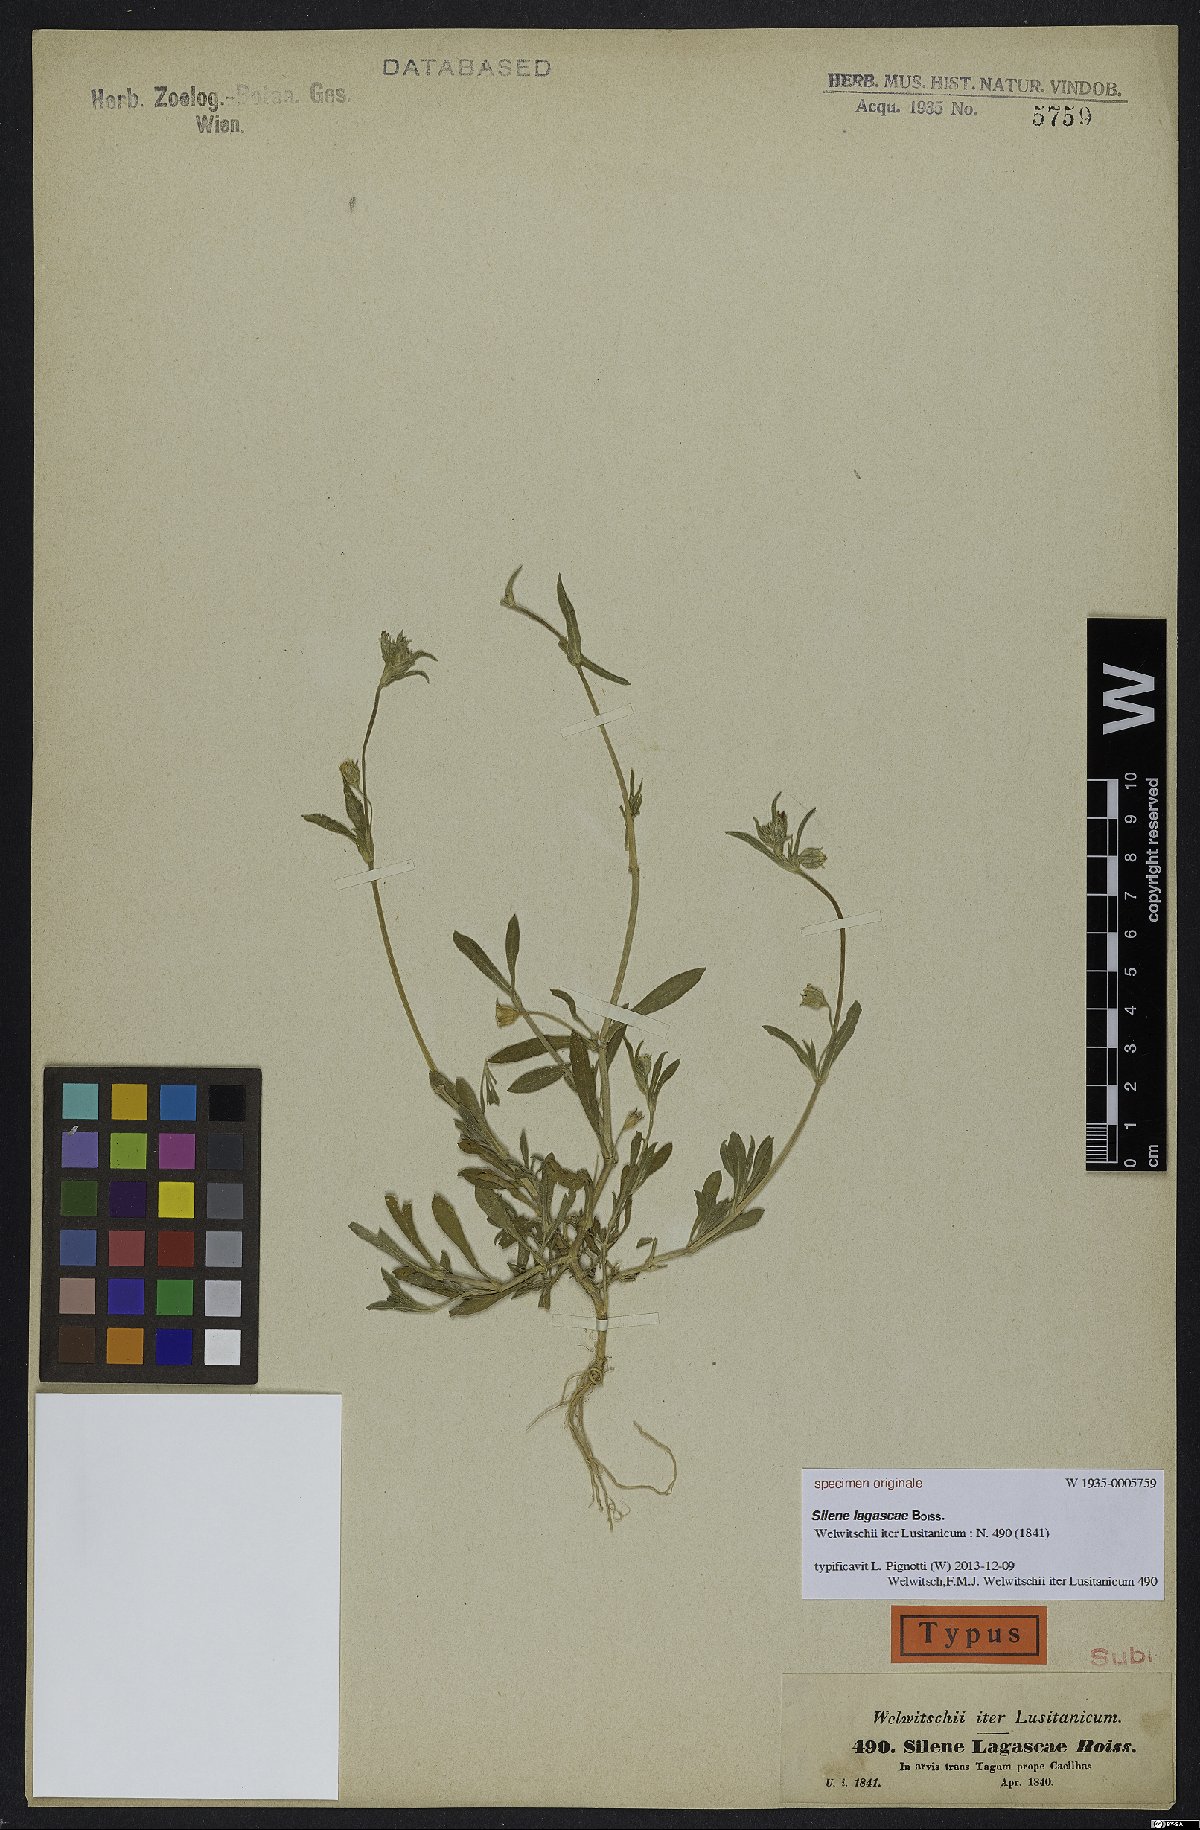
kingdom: Plantae
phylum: Tracheophyta
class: Magnoliopsida
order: Caryophyllales
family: Caryophyllaceae
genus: Silene
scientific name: Silene nocturna
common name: Mediterranean catchfly
